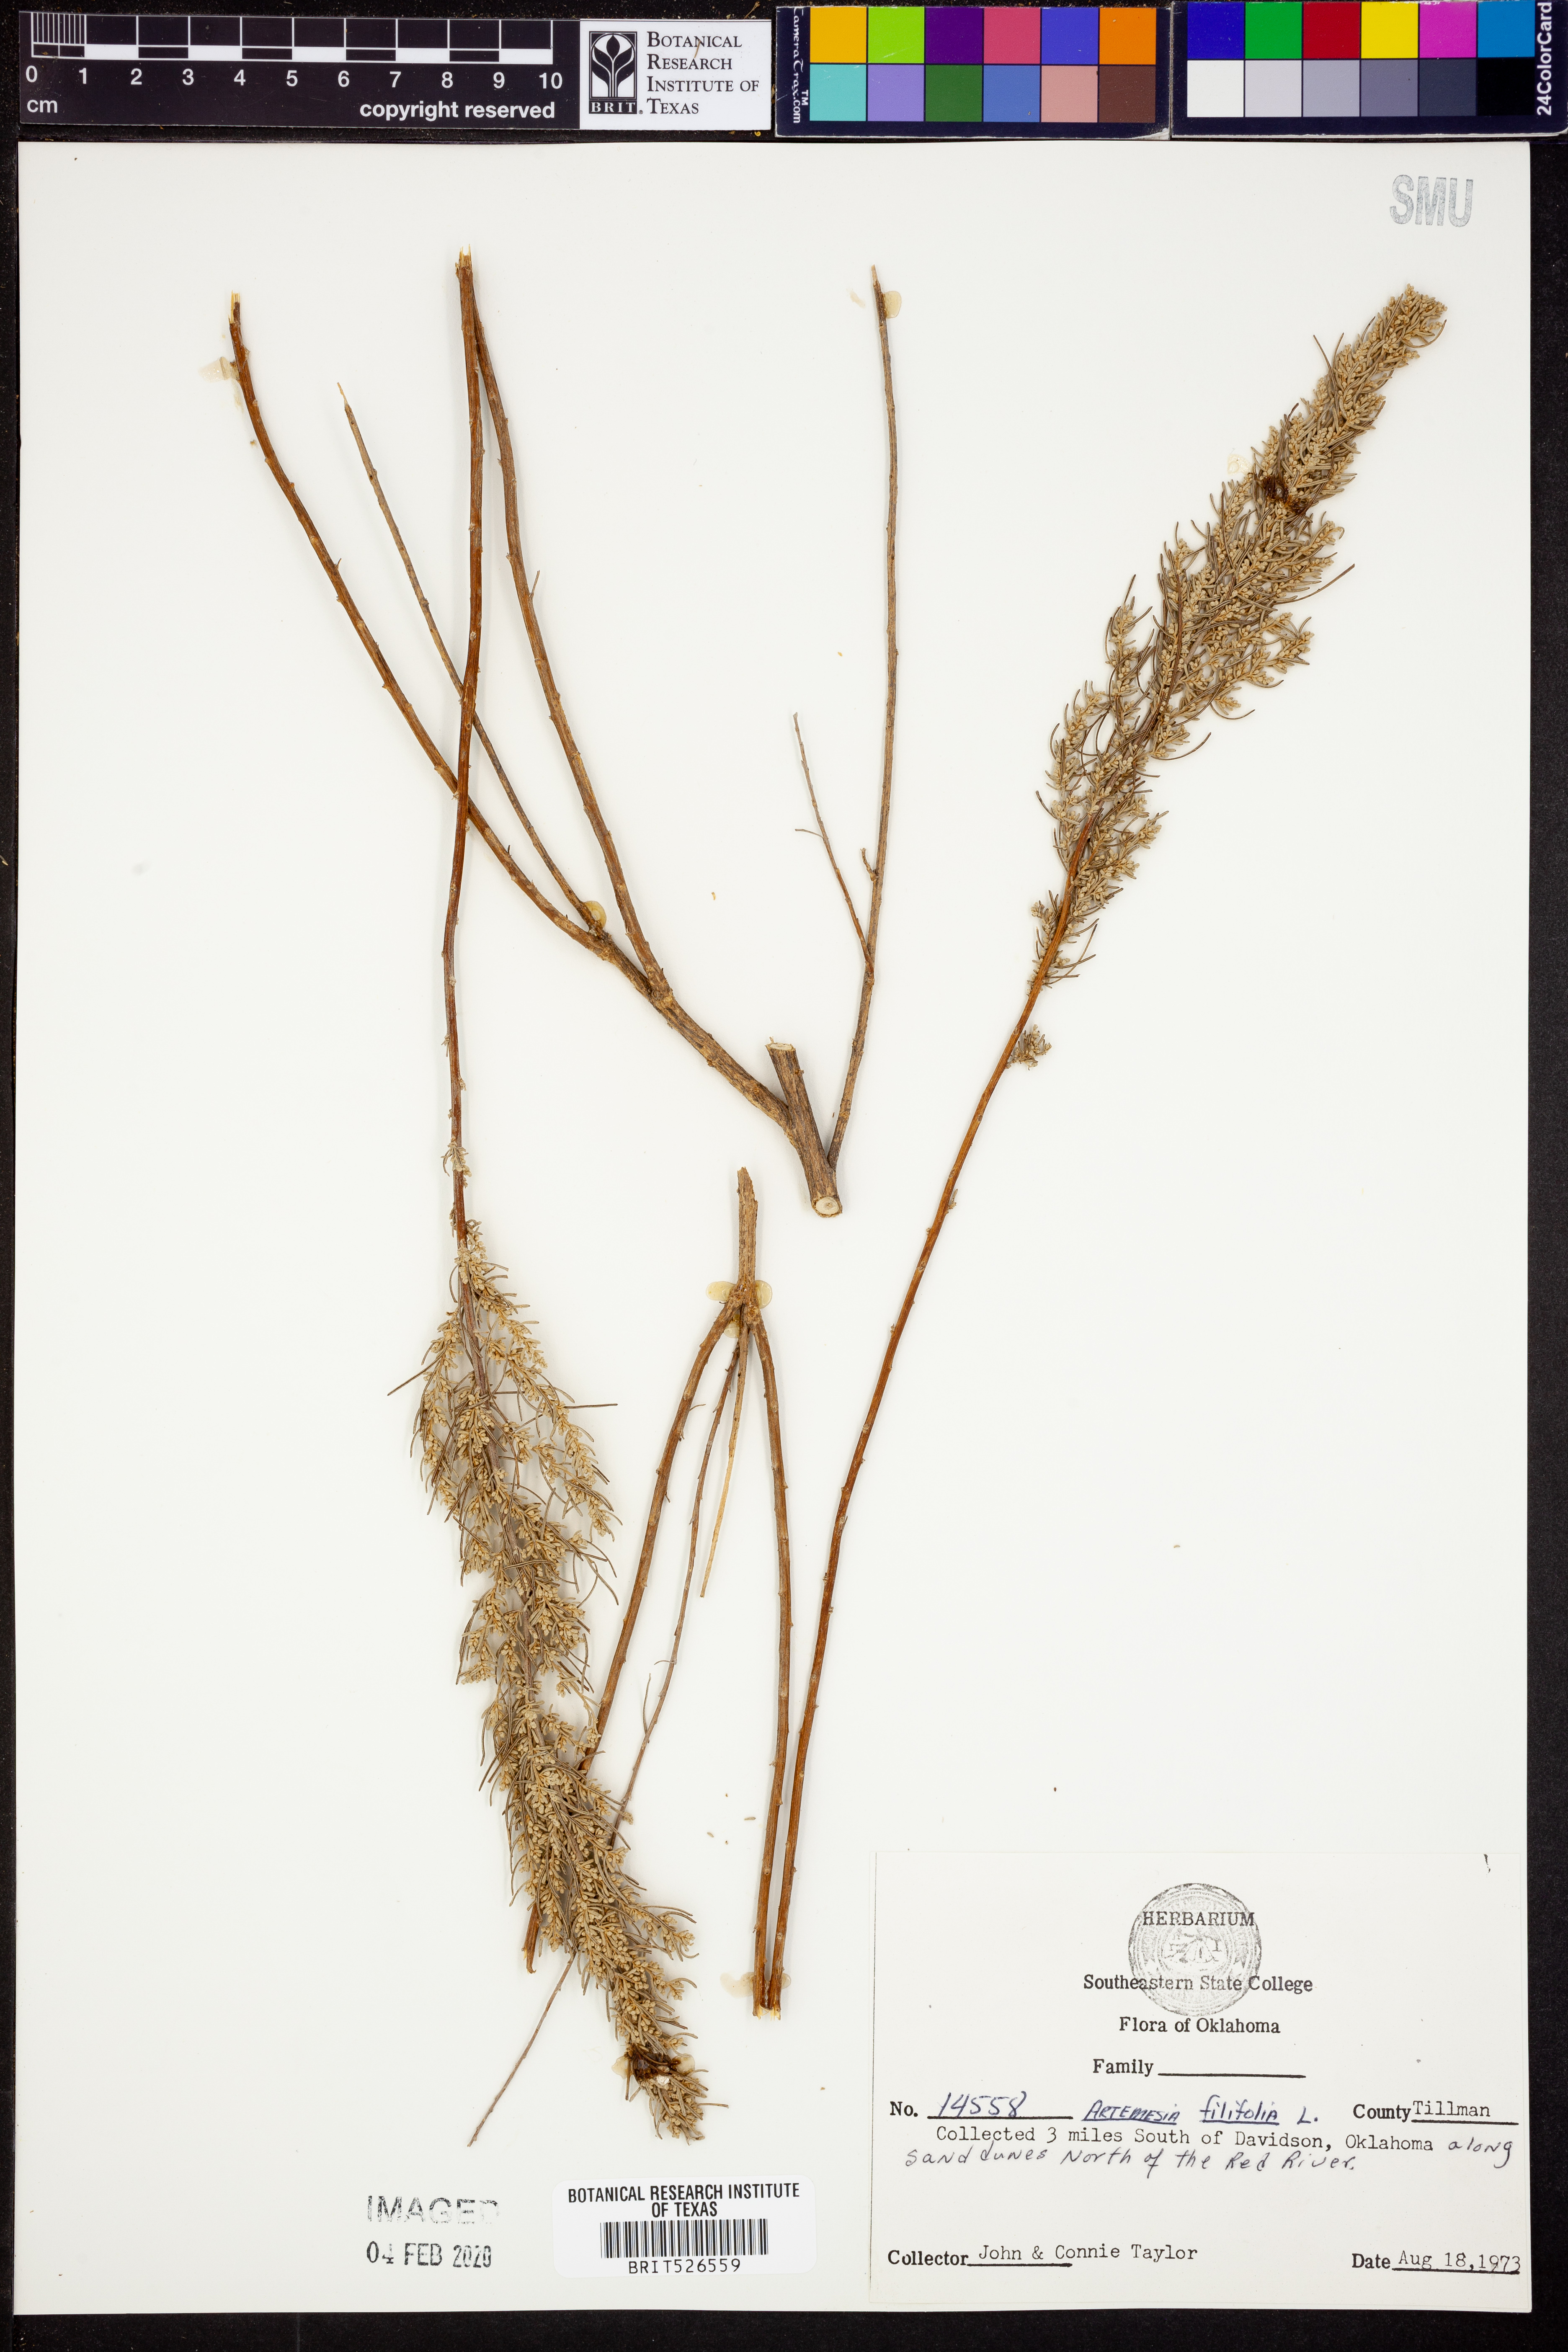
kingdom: Plantae
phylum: Tracheophyta
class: Magnoliopsida
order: Asterales
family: Asteraceae
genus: Artemisia
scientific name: Artemisia filifolia
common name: Sand-sage
